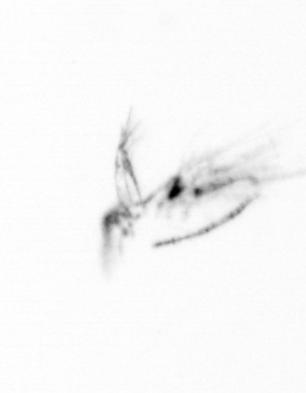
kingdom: Chromista
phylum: Ochrophyta
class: Bacillariophyceae
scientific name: Bacillariophyceae
